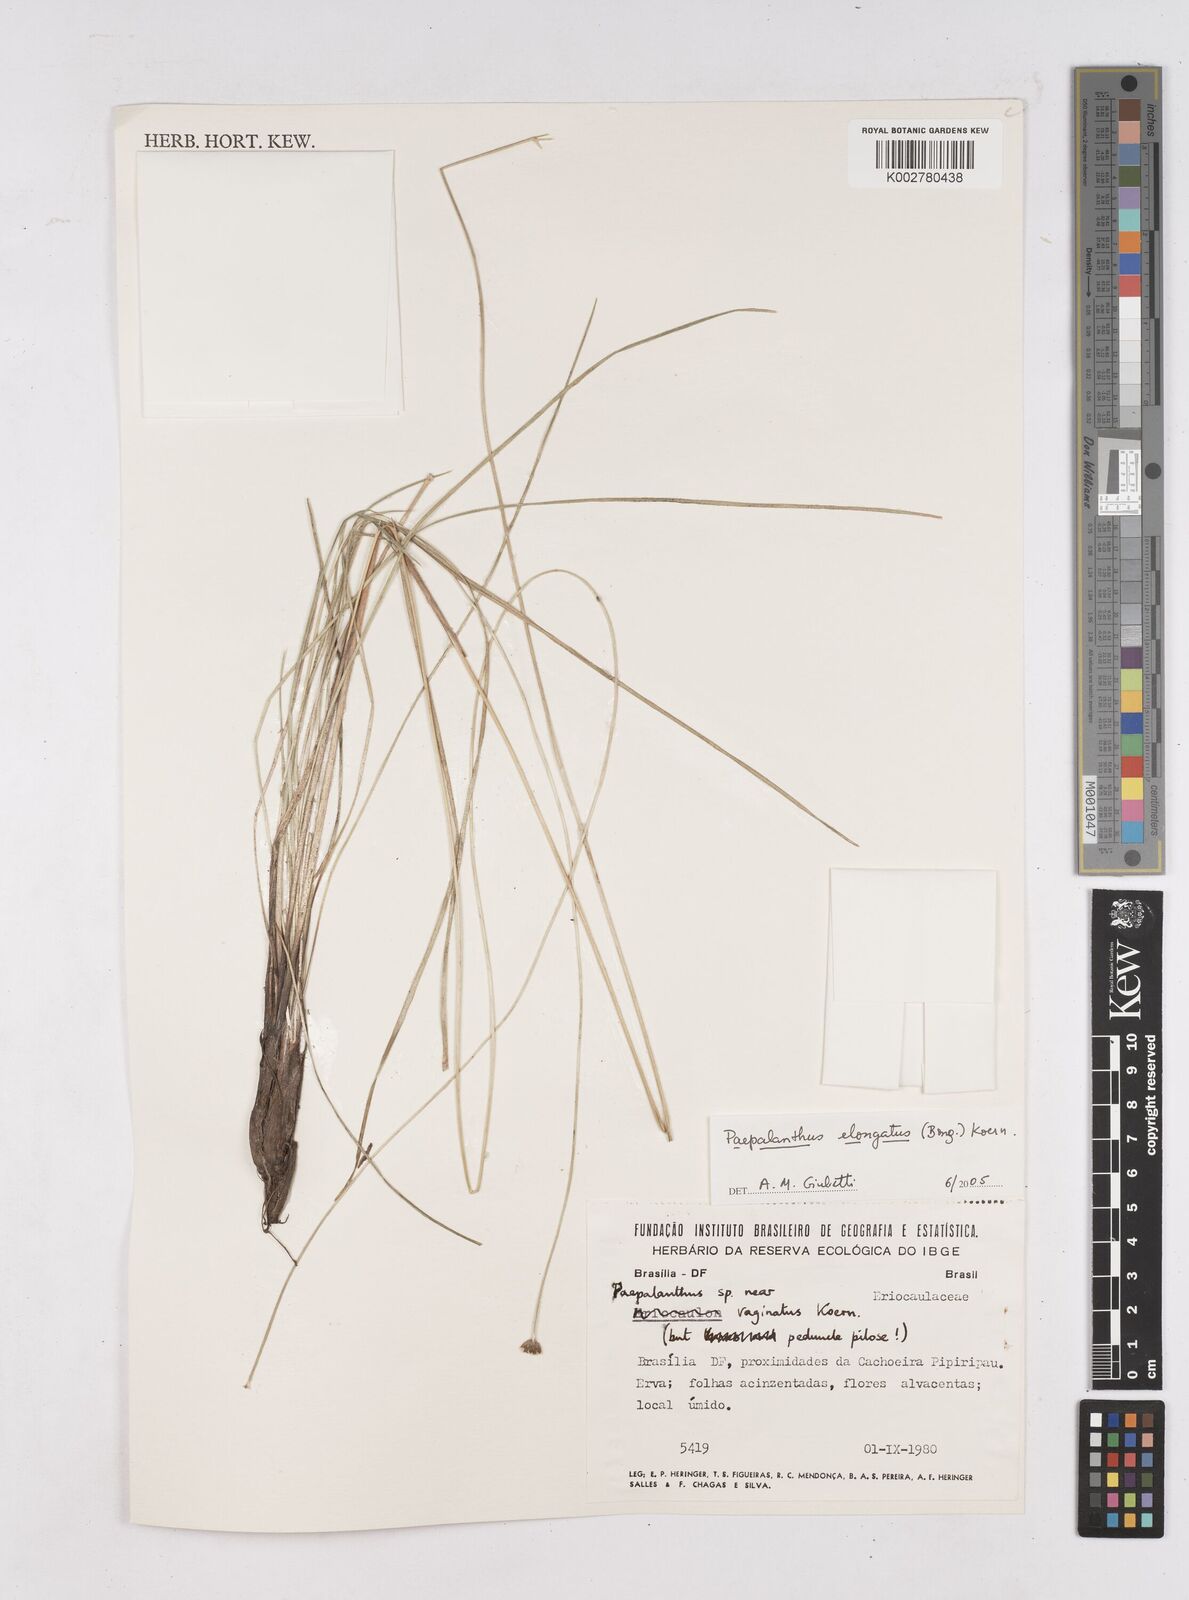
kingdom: Plantae
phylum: Tracheophyta
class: Liliopsida
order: Poales
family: Eriocaulaceae
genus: Paepalanthus
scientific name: Paepalanthus elongatus
